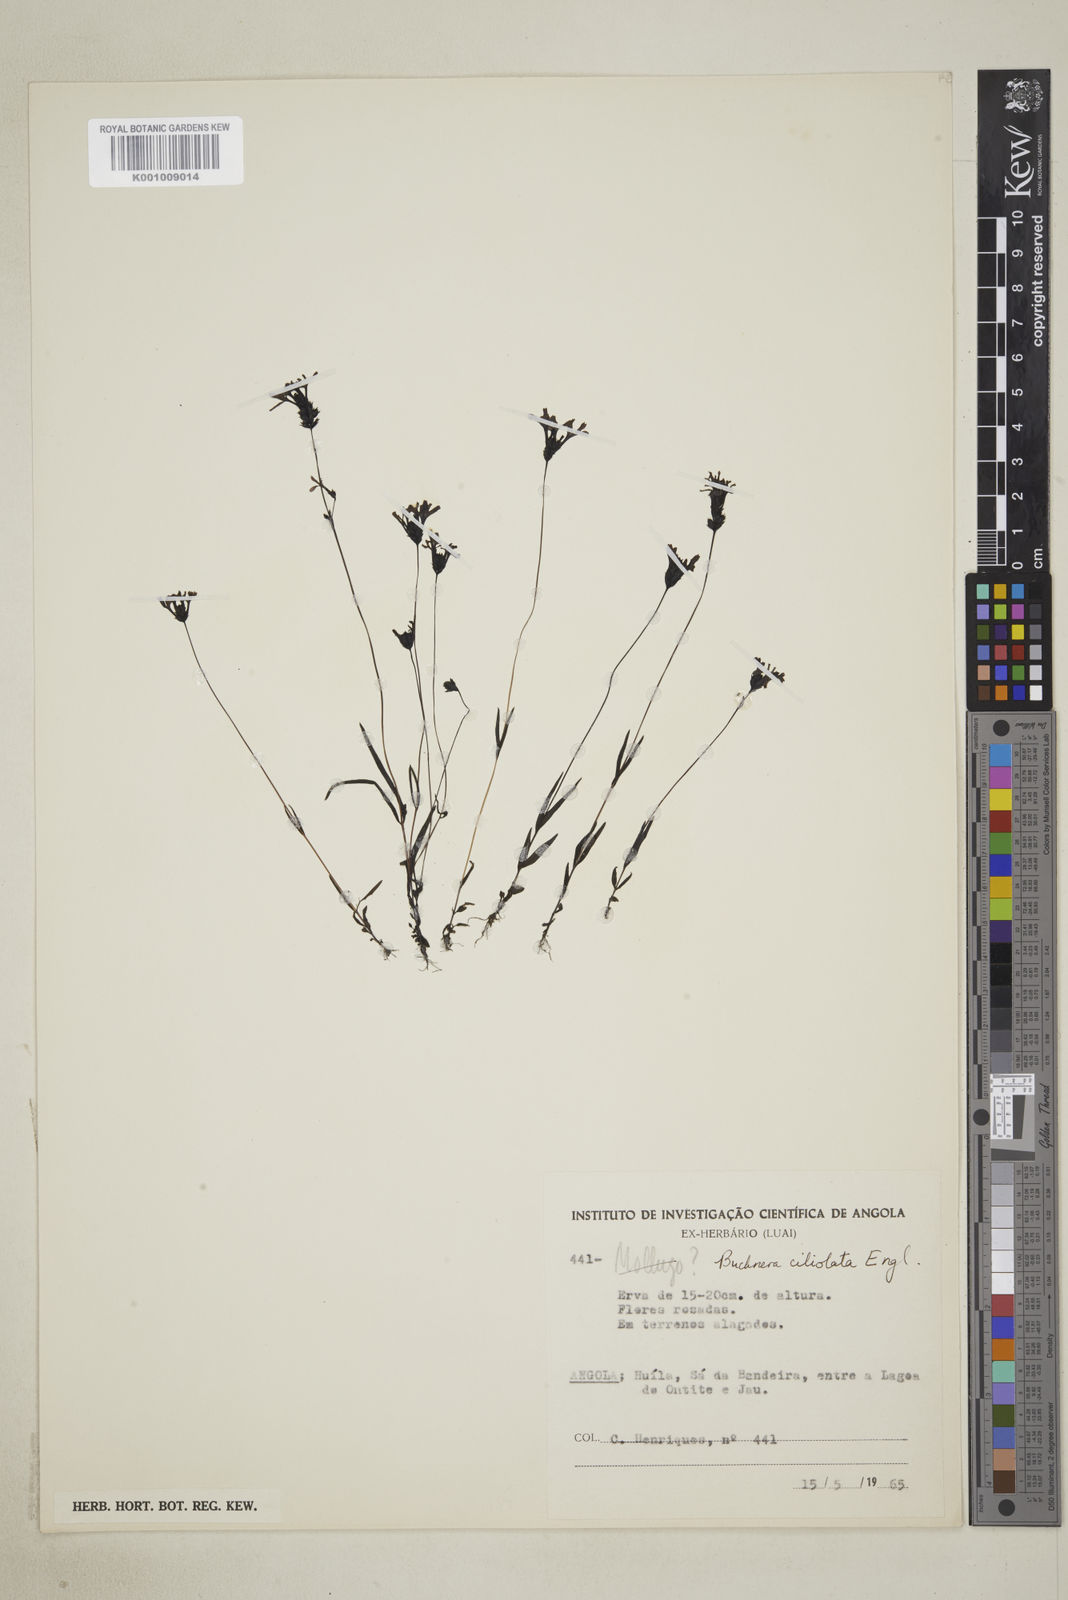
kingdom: Plantae
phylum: Tracheophyta
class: Magnoliopsida
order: Lamiales
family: Orobanchaceae
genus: Buchnera
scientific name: Buchnera ciliolata
